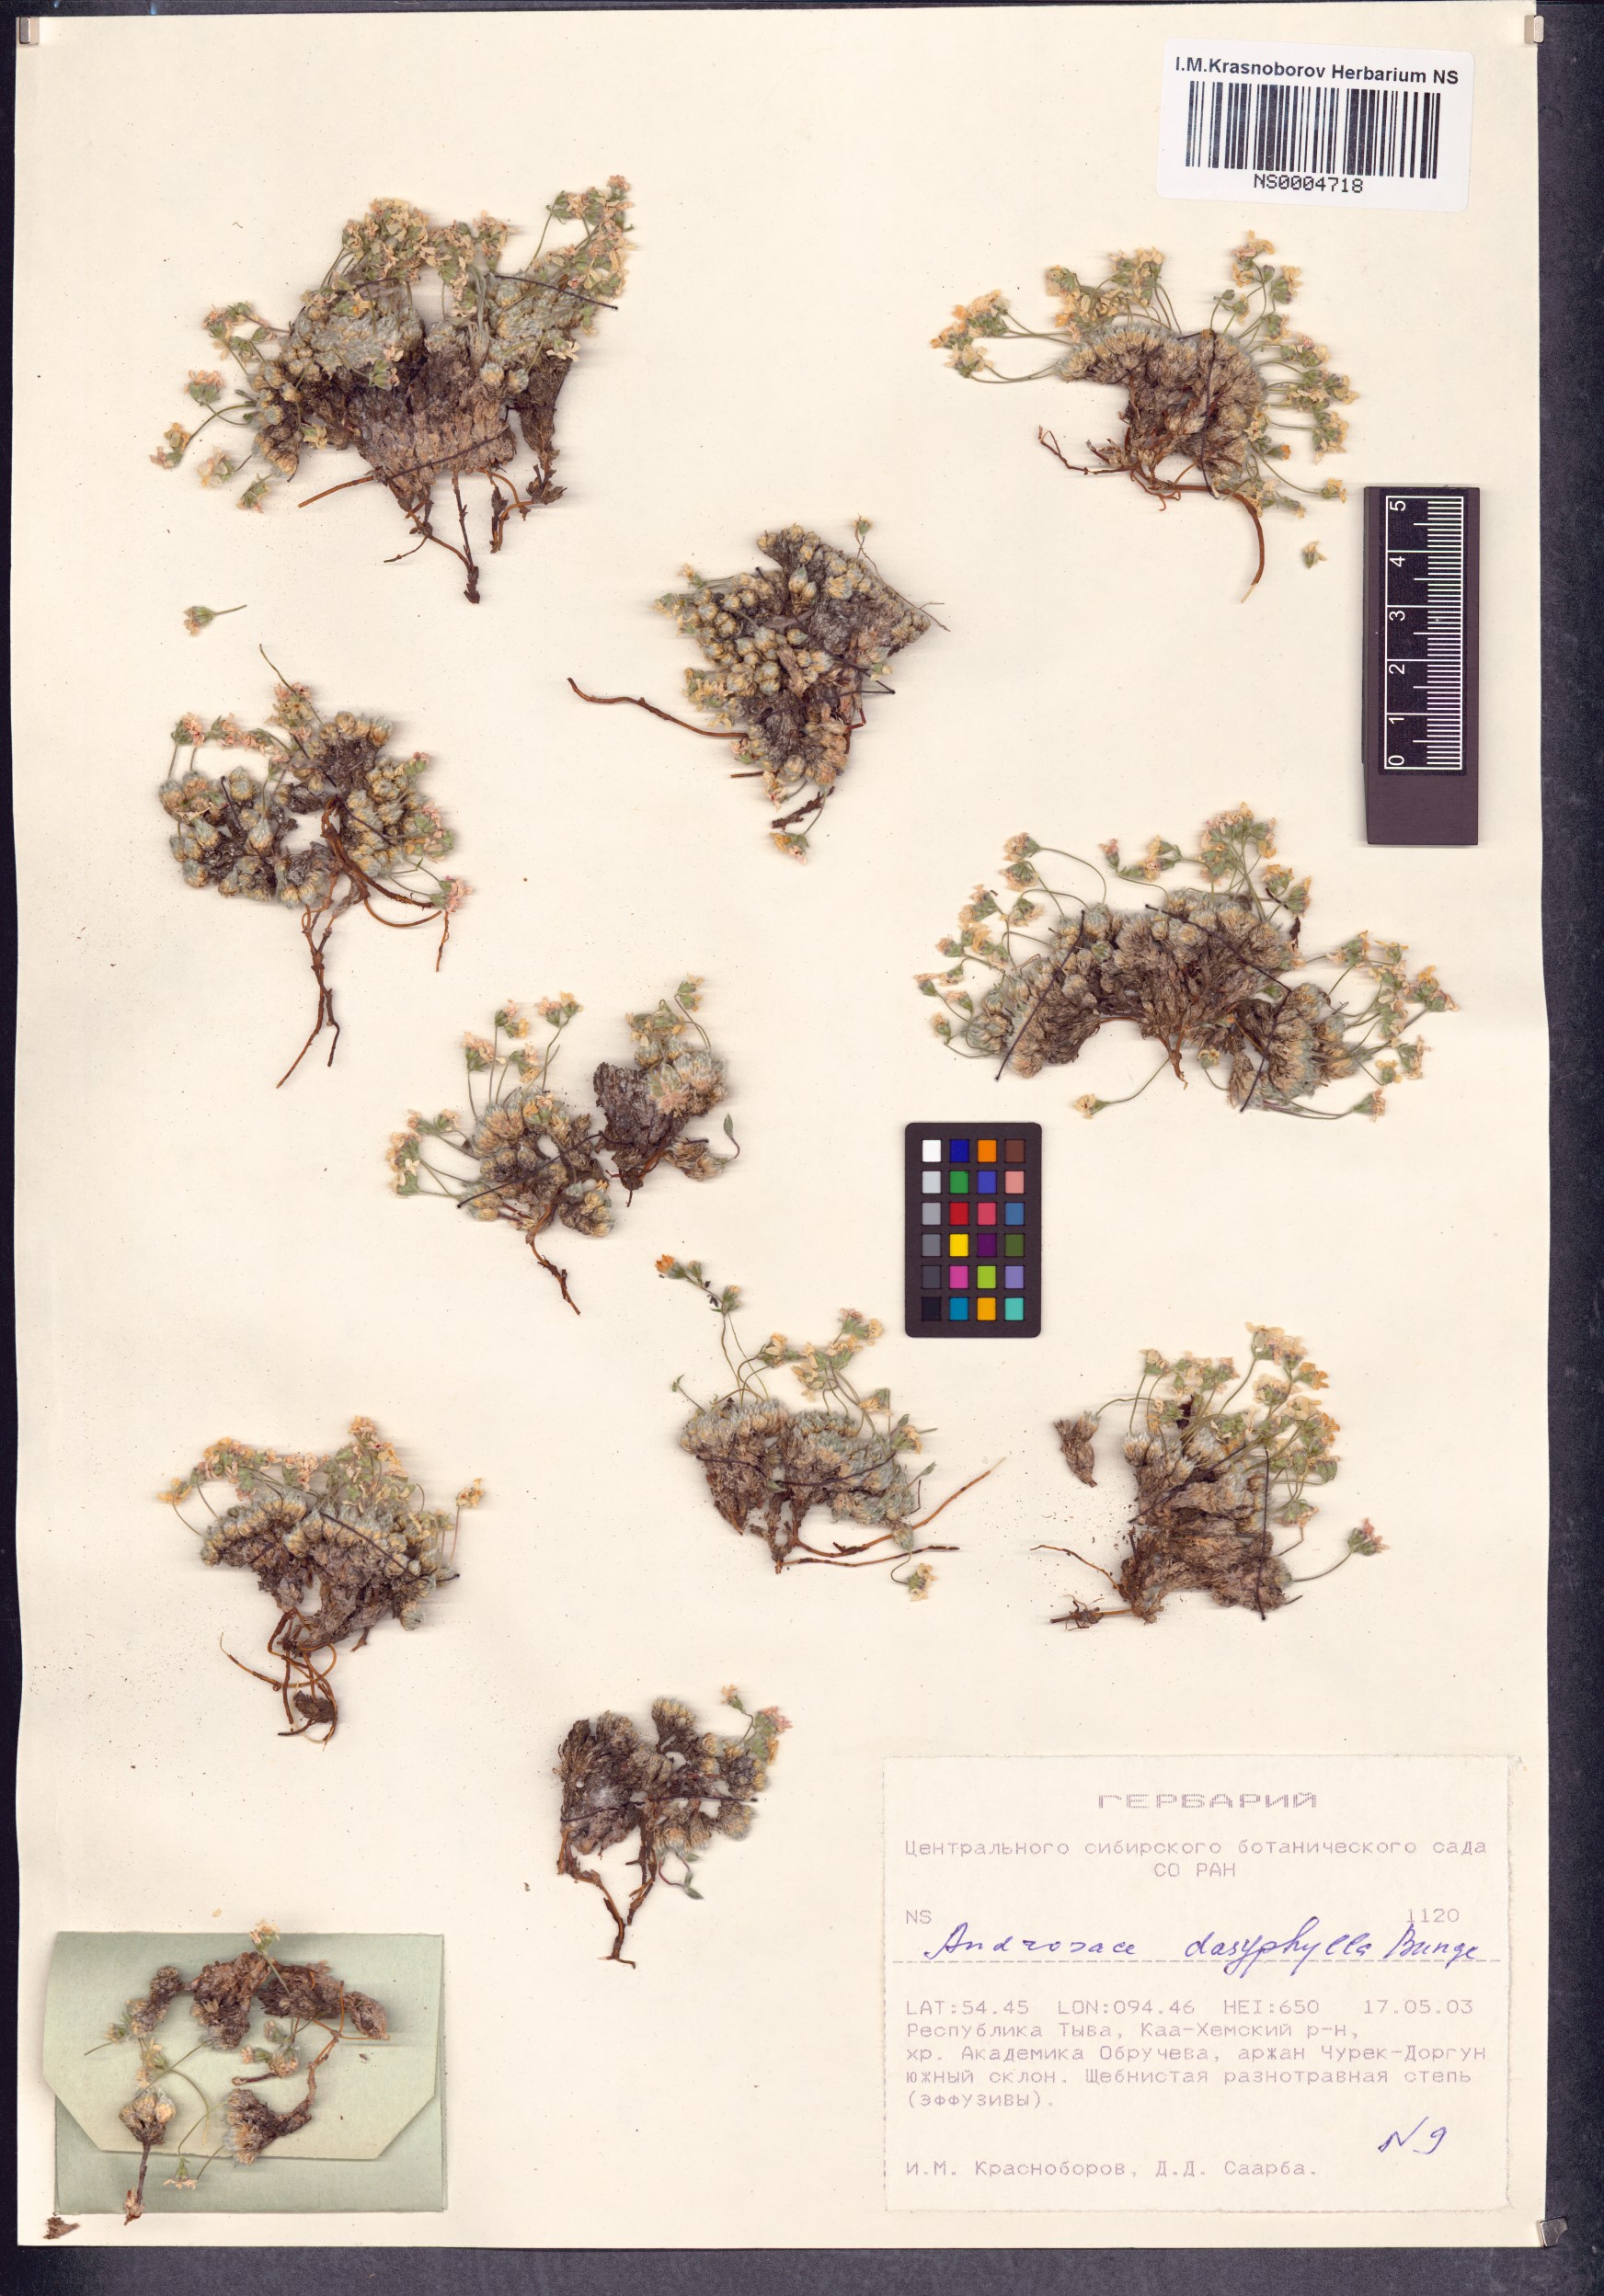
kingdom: Plantae
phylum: Tracheophyta
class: Magnoliopsida
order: Ericales
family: Primulaceae
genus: Androsace
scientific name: Androsace dasyphylla
